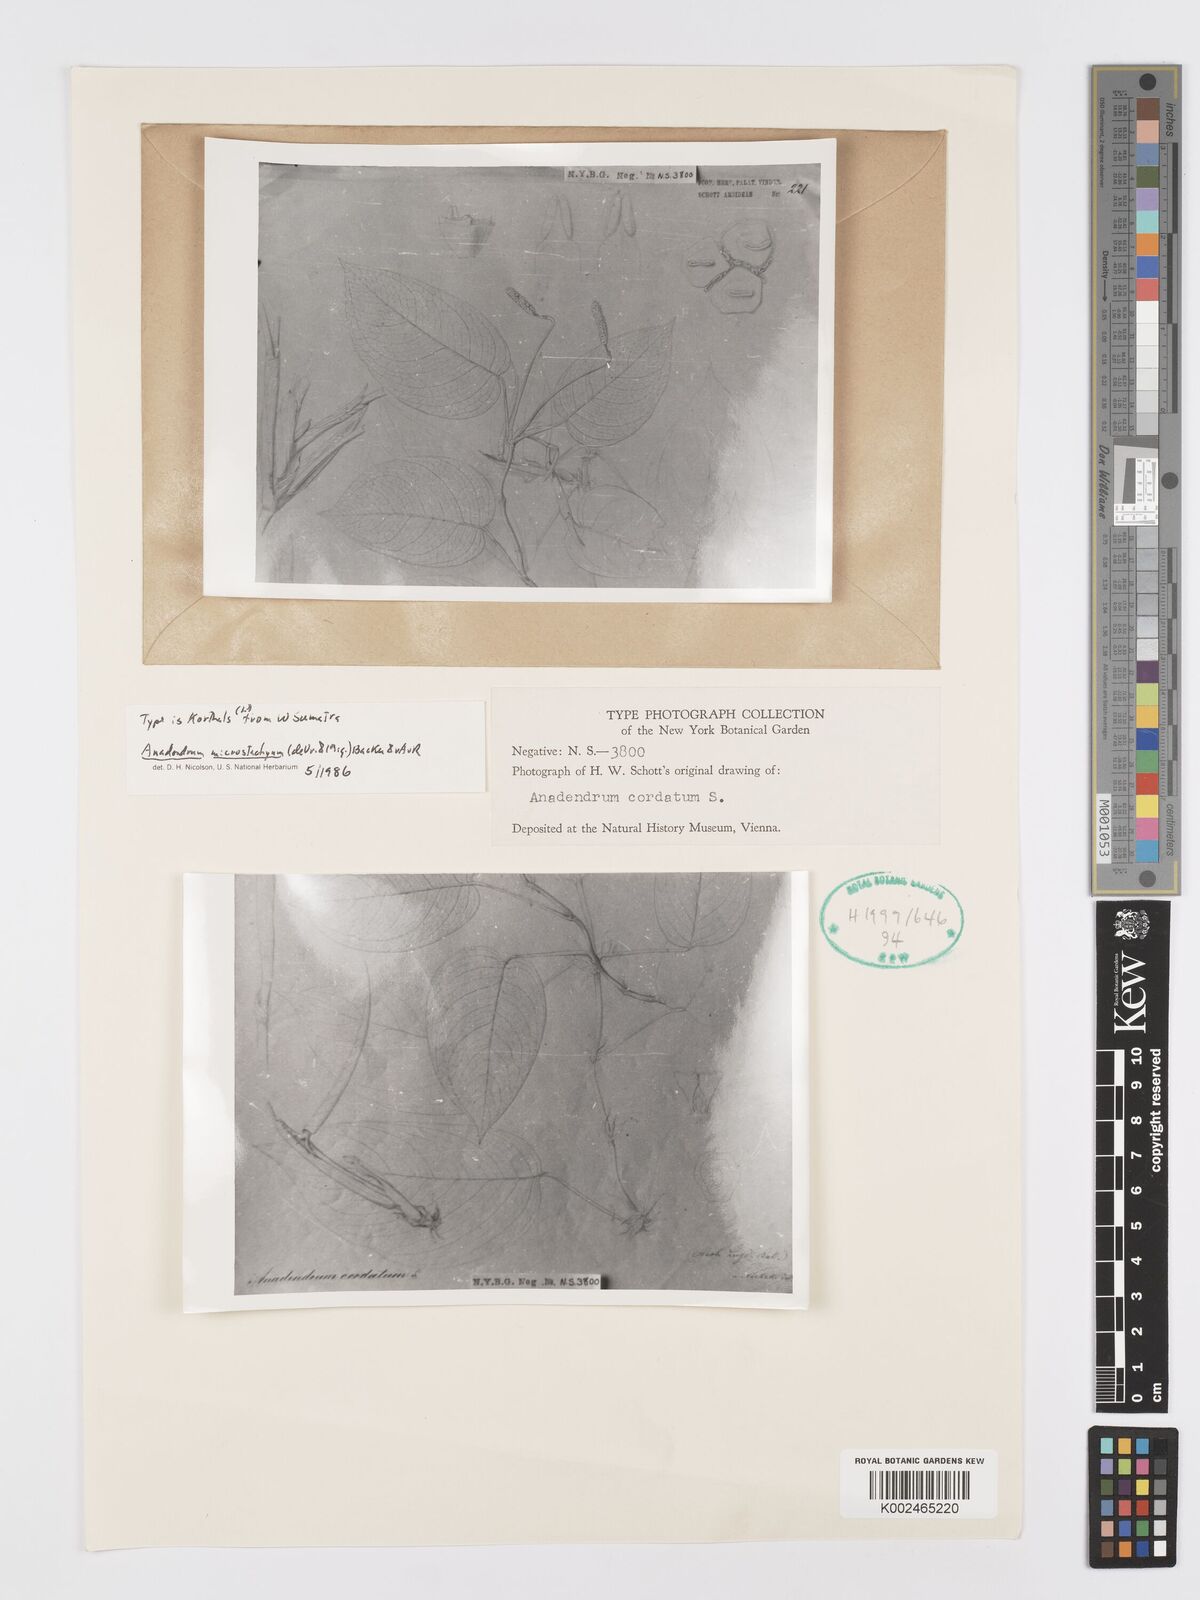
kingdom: Plantae
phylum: Tracheophyta
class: Liliopsida
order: Alismatales
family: Araceae
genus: Anadendrum
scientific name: Anadendrum microstachyum
